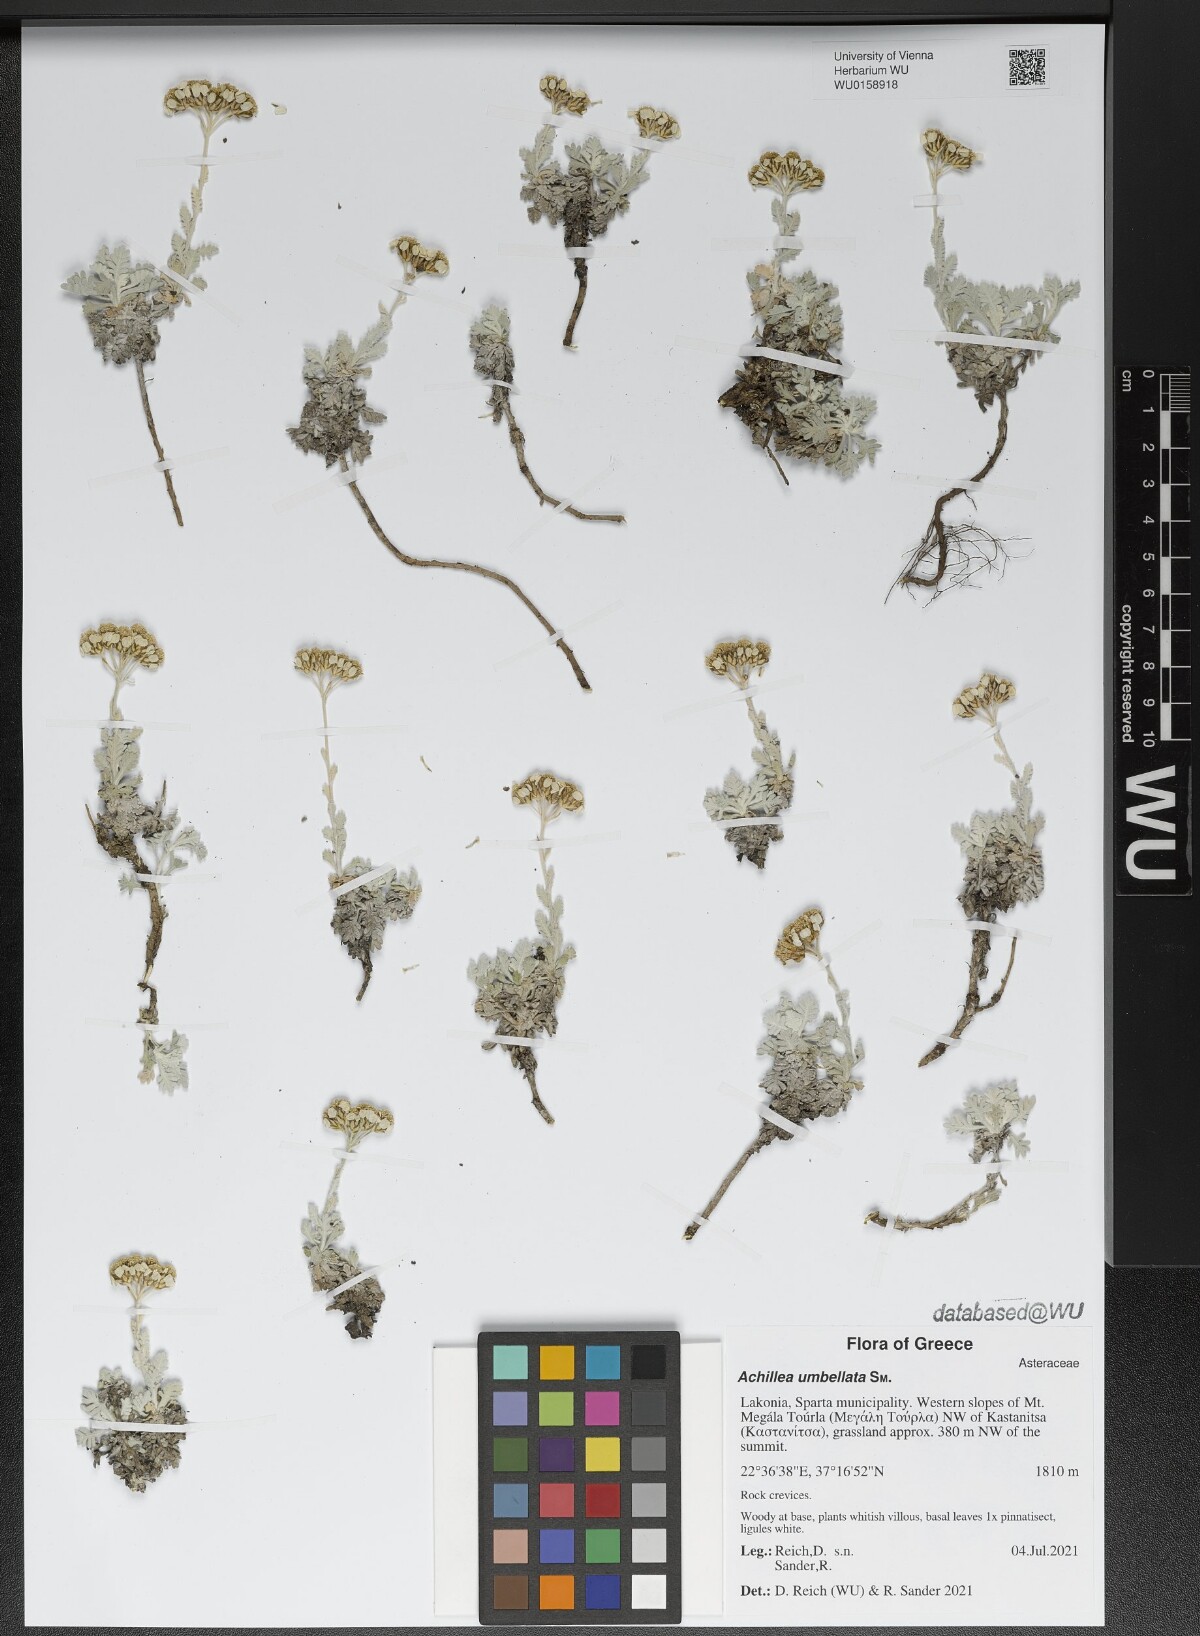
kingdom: Plantae
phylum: Tracheophyta
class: Magnoliopsida
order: Asterales
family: Asteraceae
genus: Achillea
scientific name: Achillea umbellata
